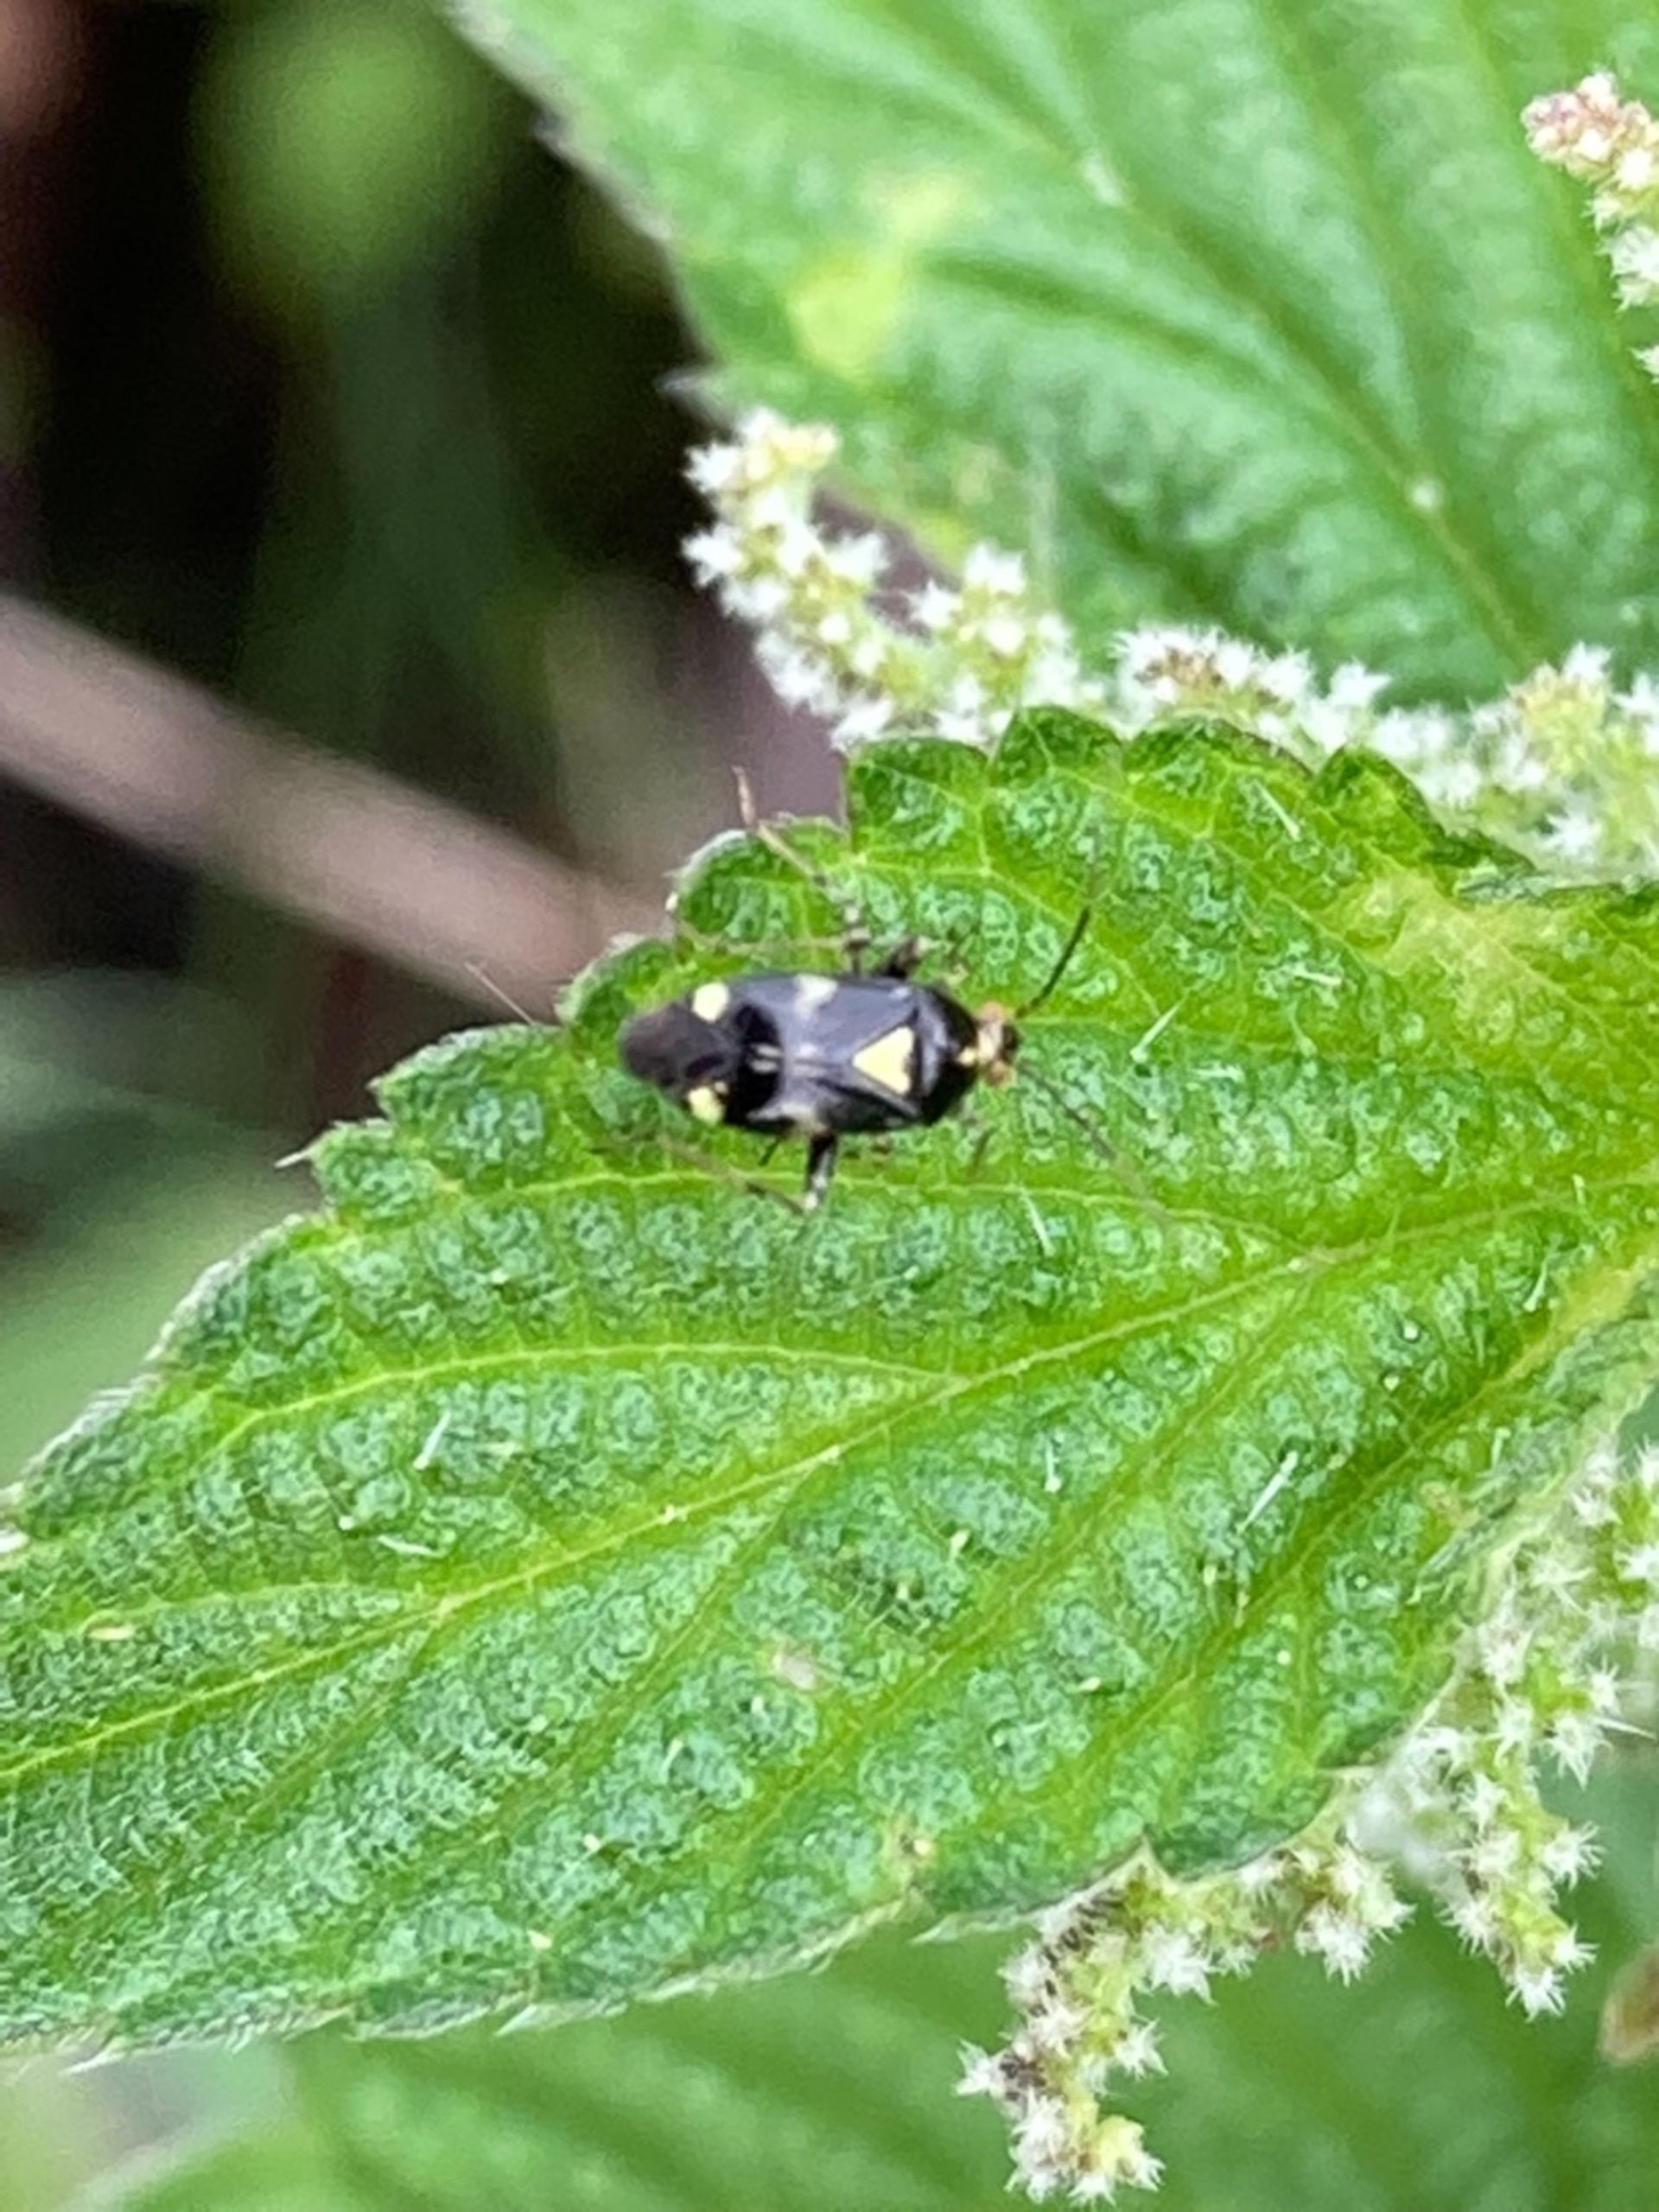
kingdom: Animalia
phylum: Arthropoda
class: Insecta
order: Hemiptera
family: Miridae
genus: Liocoris
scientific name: Liocoris tripustulatus
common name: Treplettet nældetæge
